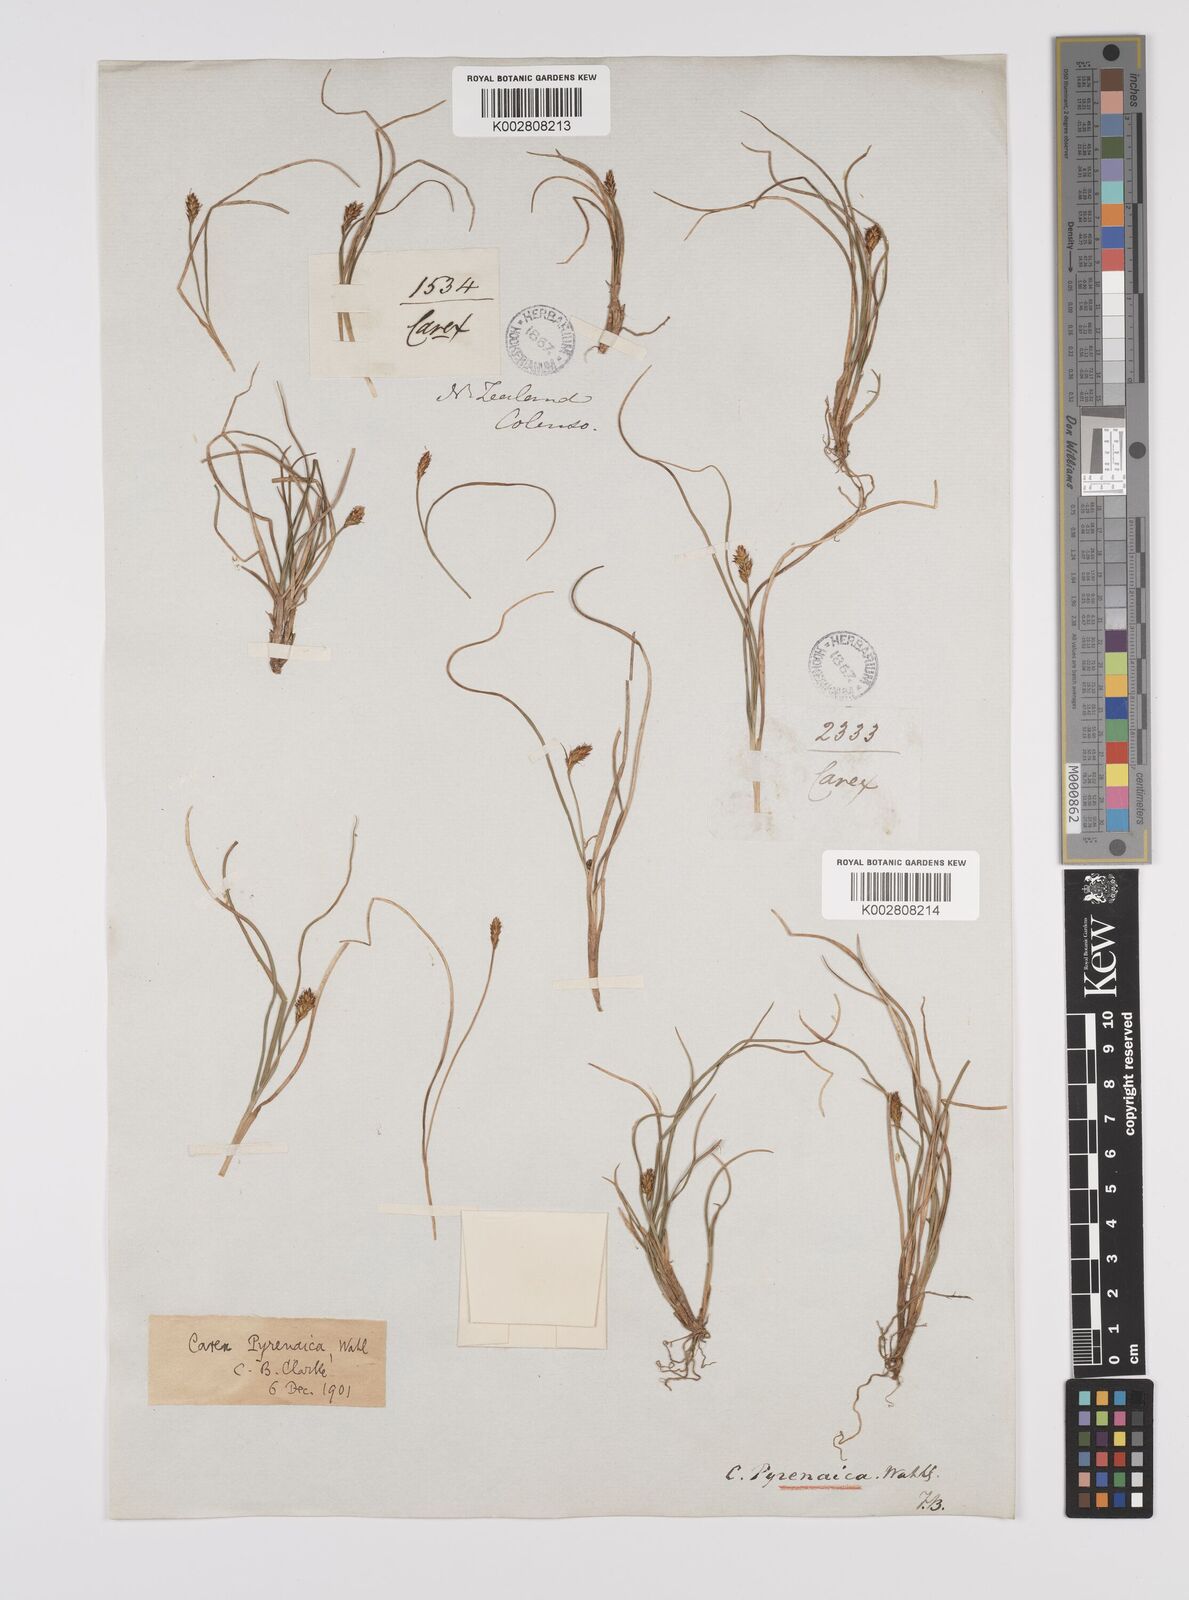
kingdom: Plantae
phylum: Tracheophyta
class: Liliopsida
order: Poales
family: Cyperaceae
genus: Carex
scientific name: Carex pyrenaica
